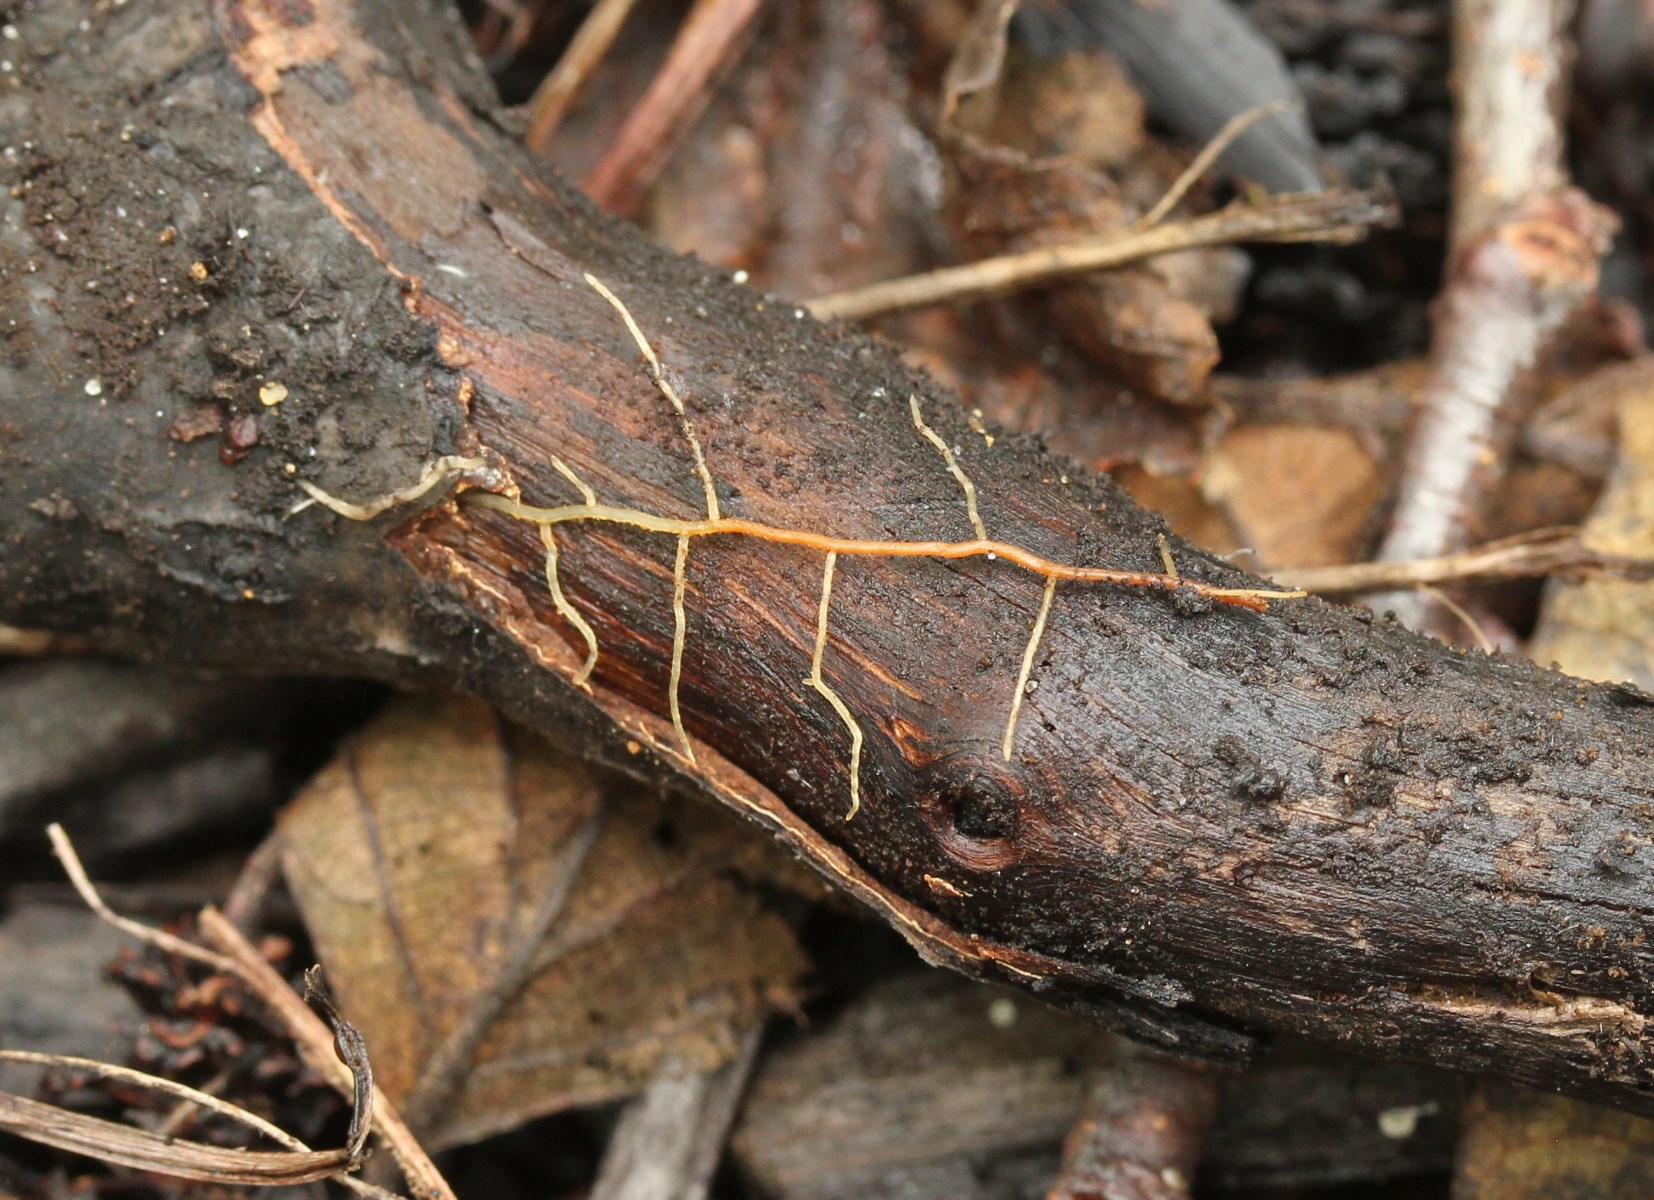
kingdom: Fungi
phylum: Basidiomycota
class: Agaricomycetes
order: Agaricales
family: Porotheleaceae
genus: Phloeomana
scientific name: Phloeomana speirea
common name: kvist-huesvamp
